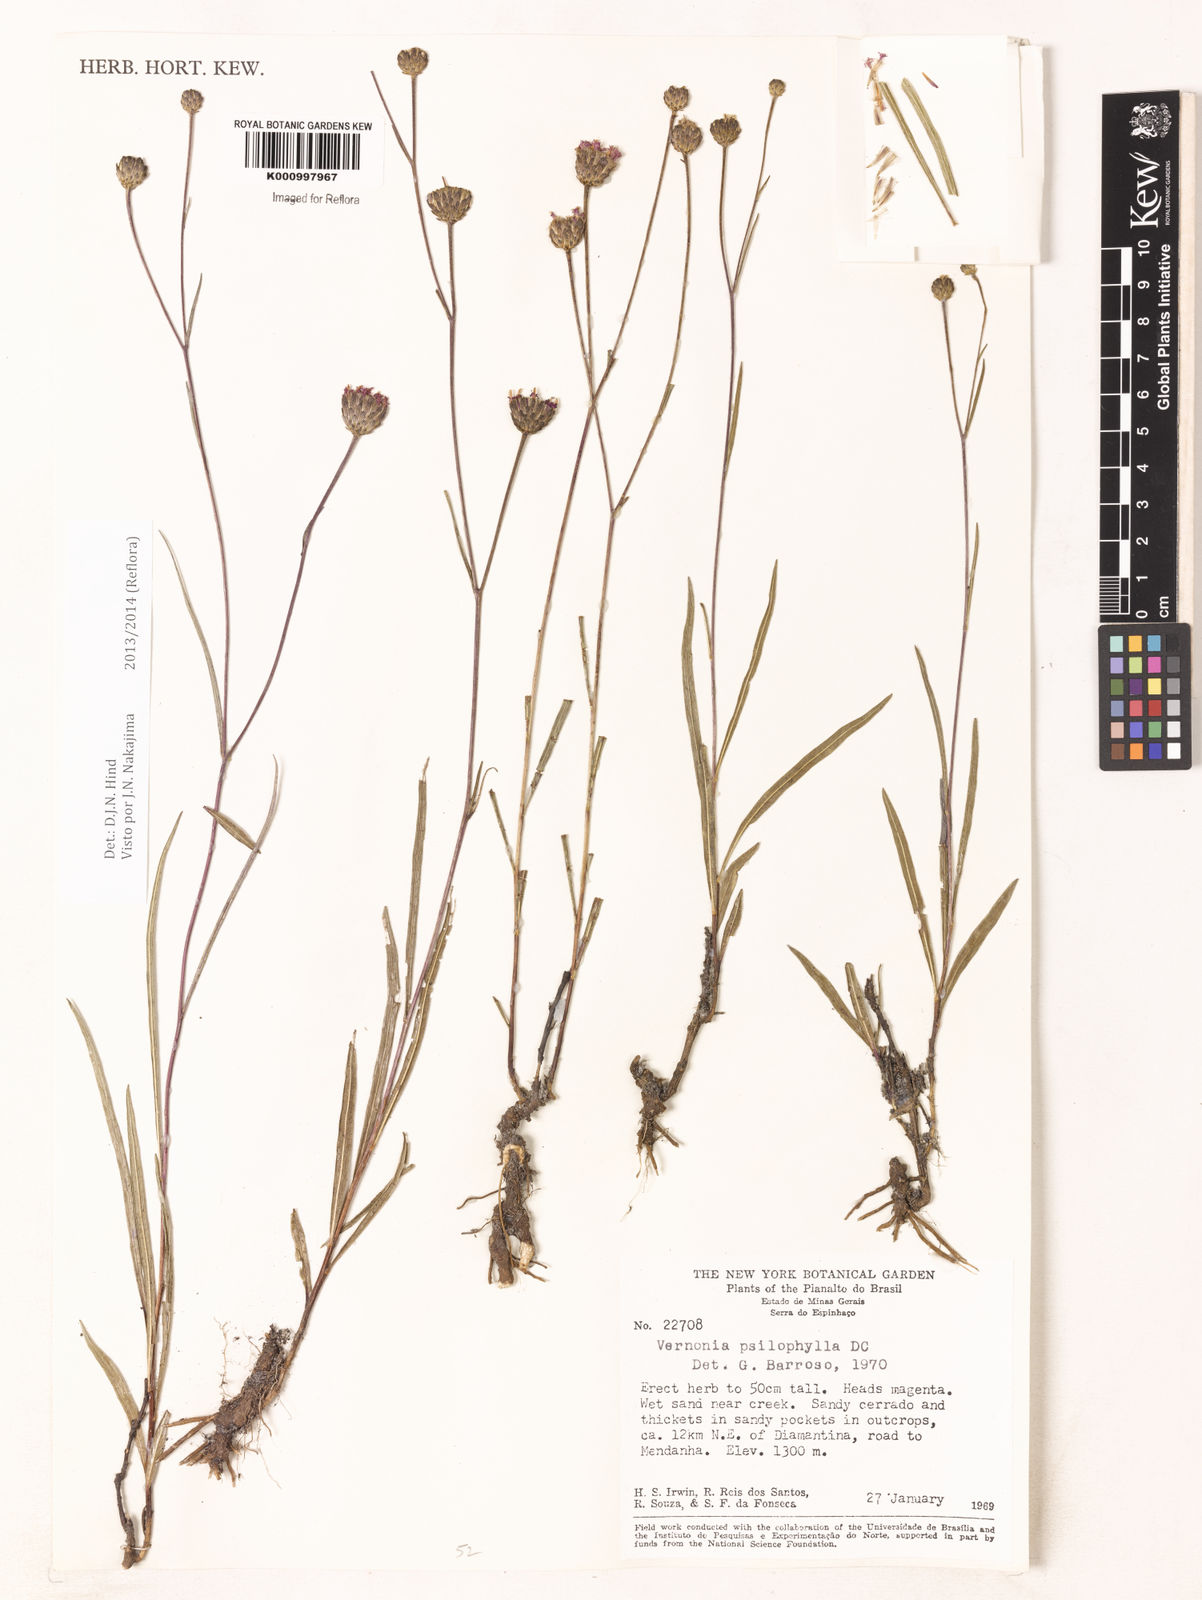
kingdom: Plantae
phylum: Tracheophyta
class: Magnoliopsida
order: Asterales
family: Asteraceae
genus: Lessingianthus
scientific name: Lessingianthus brevifolius
